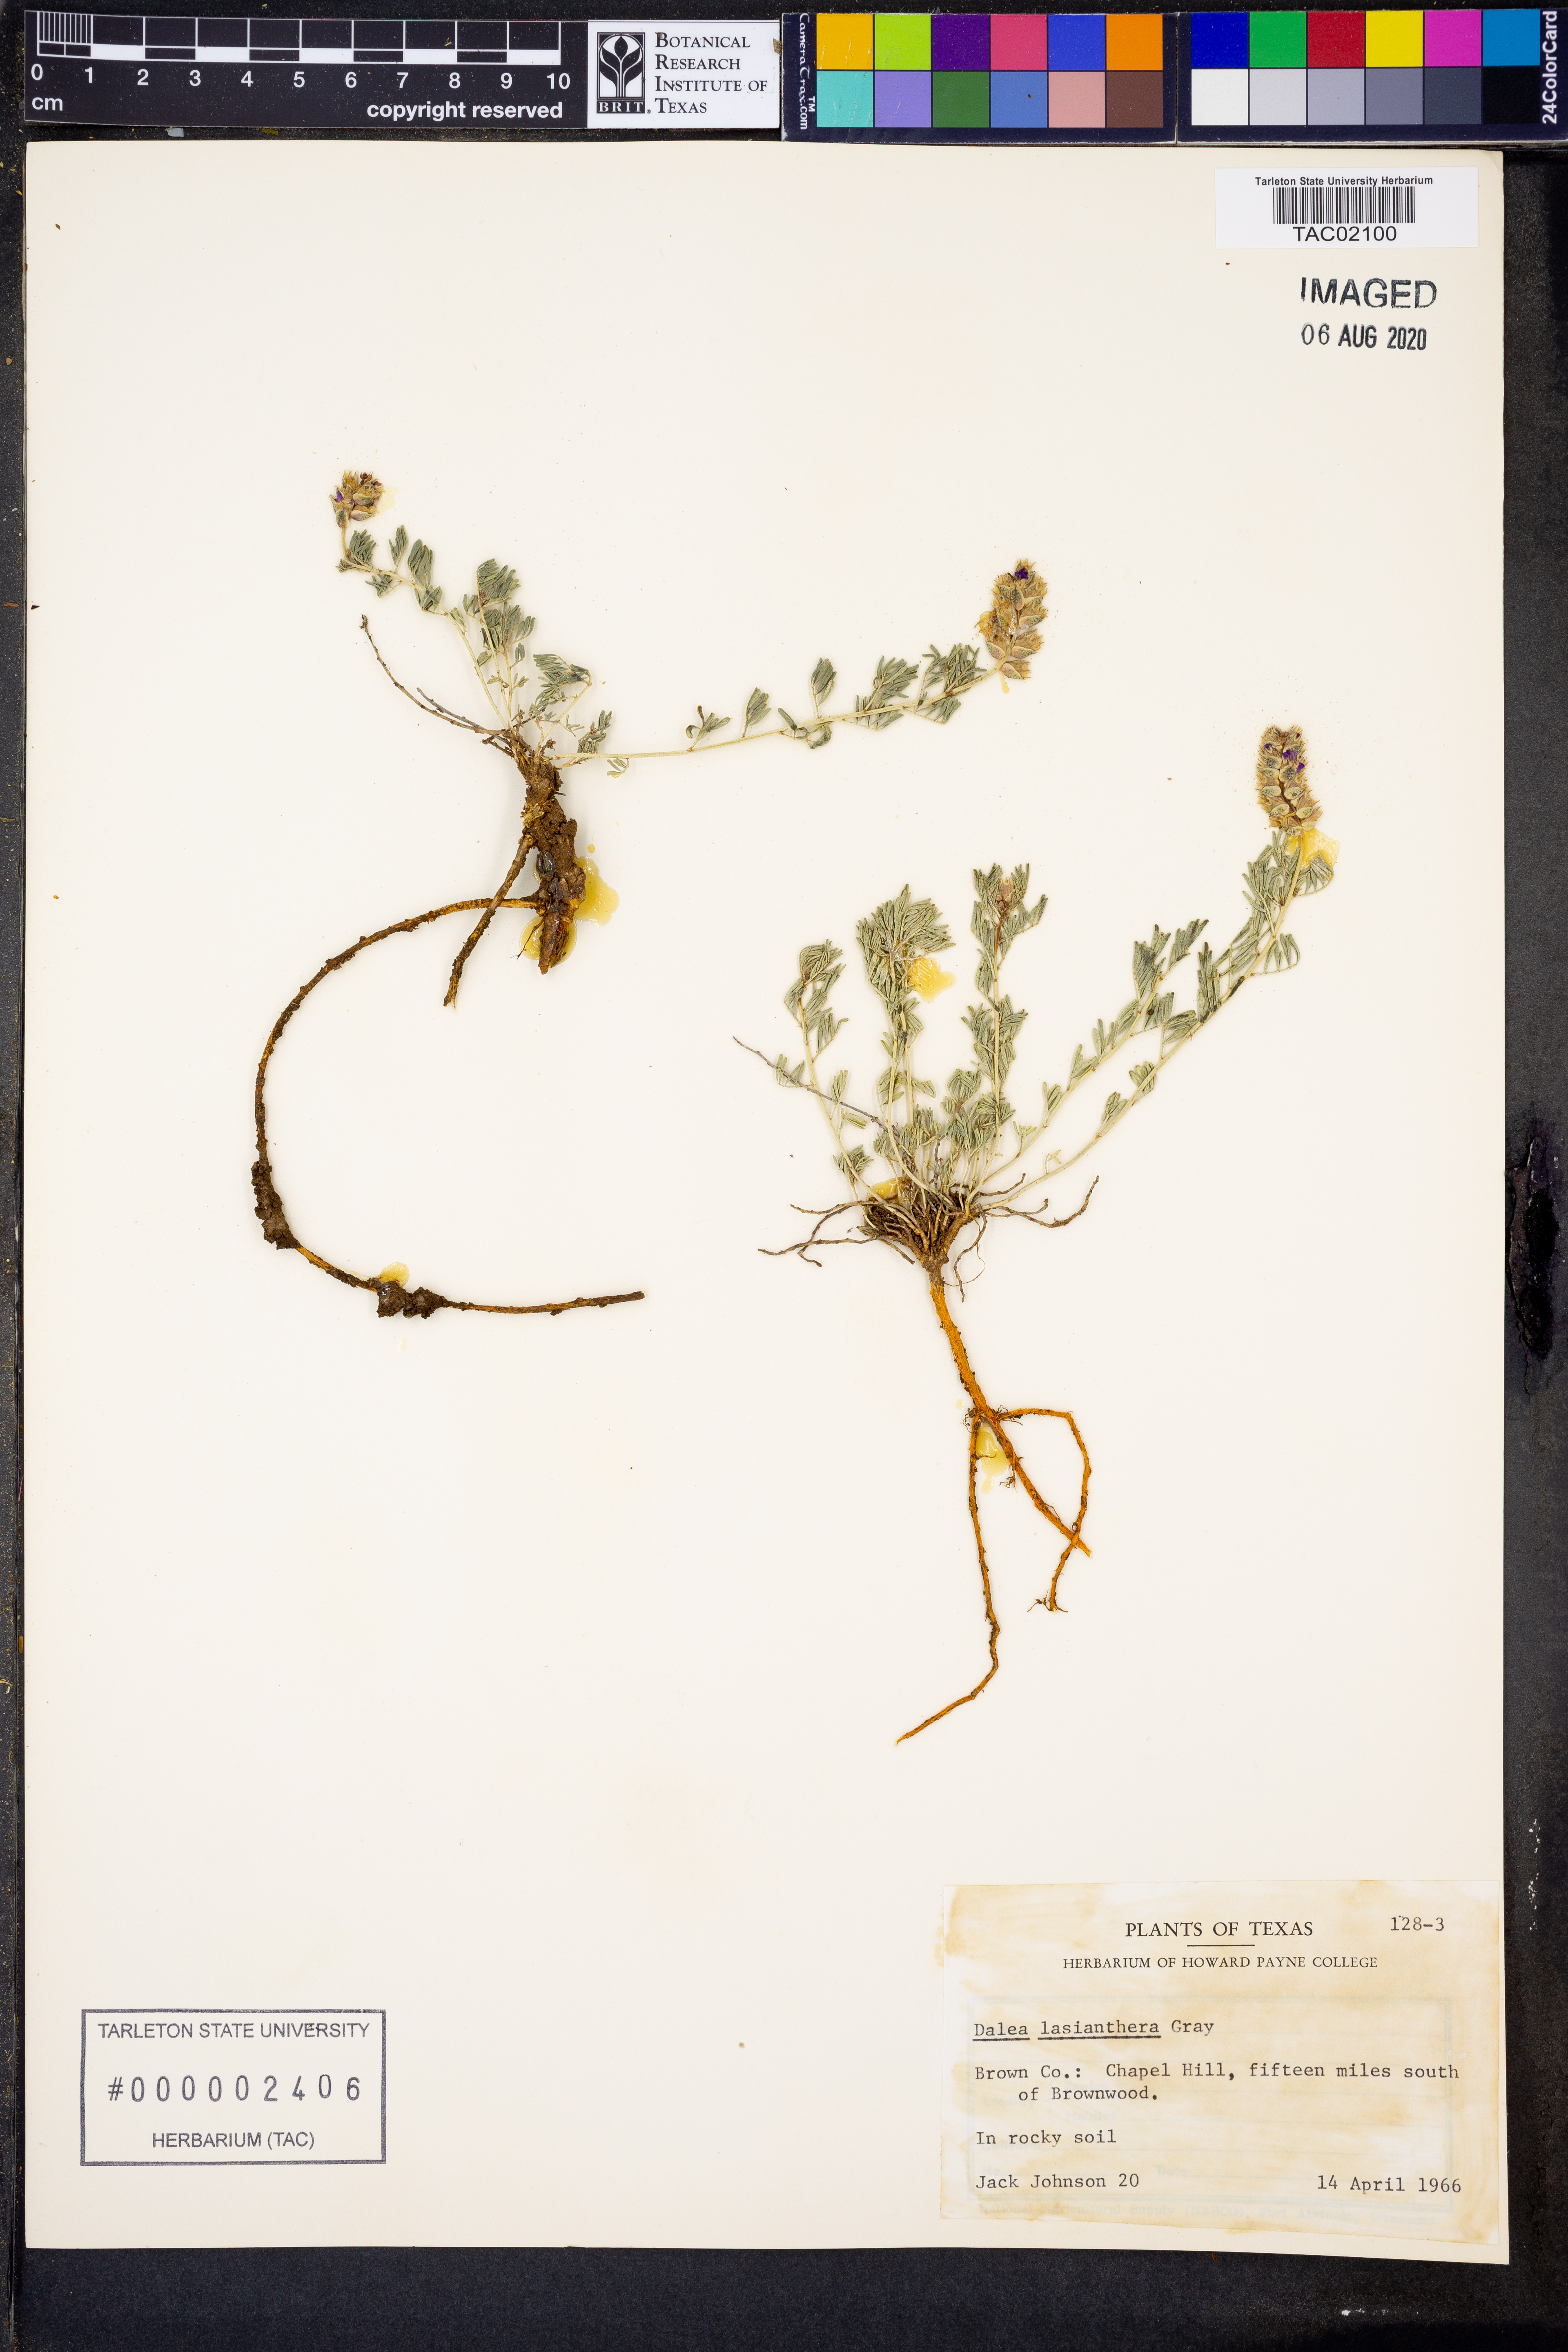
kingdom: Plantae
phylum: Tracheophyta
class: Magnoliopsida
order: Fabales
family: Fabaceae
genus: Dalea
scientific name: Dalea lasiathera
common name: Purple prairie-clover
